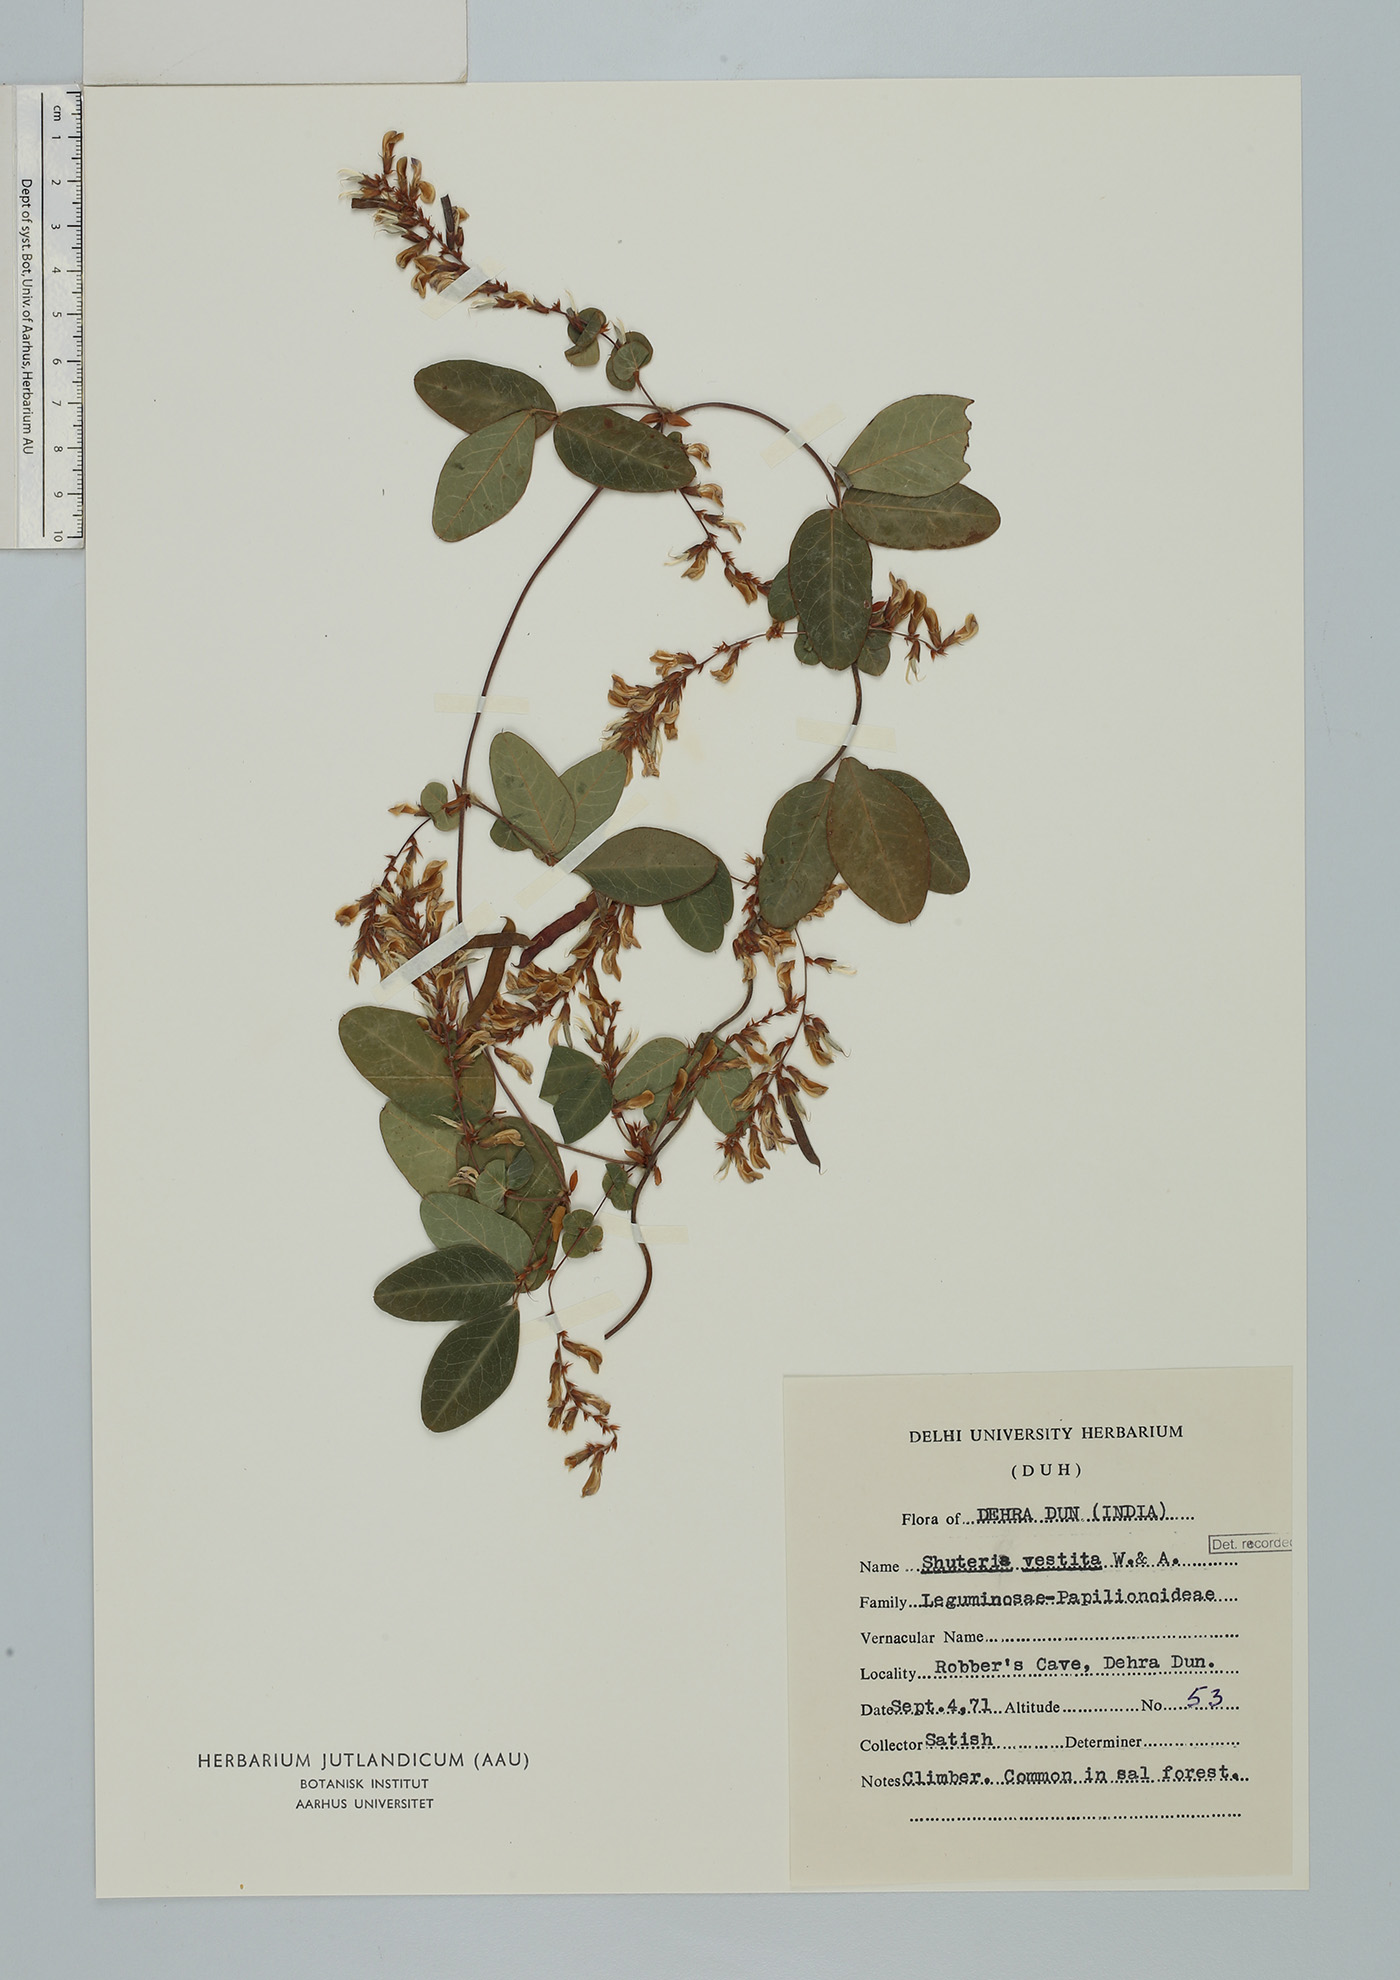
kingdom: Plantae
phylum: Tracheophyta
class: Magnoliopsida
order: Fabales
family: Fabaceae
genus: Shuteria
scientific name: Shuteria involucrata
